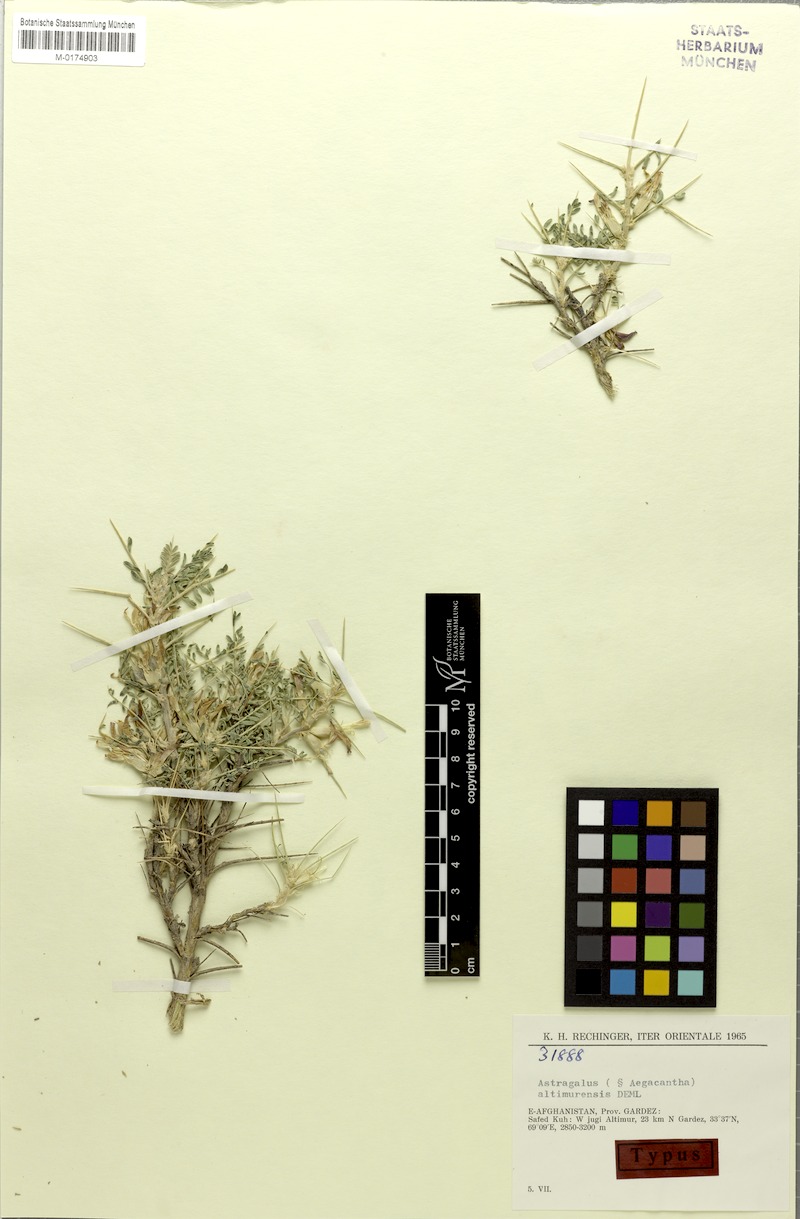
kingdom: Plantae
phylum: Tracheophyta
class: Magnoliopsida
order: Fabales
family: Fabaceae
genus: Astragalus
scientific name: Astragalus altimurensis
